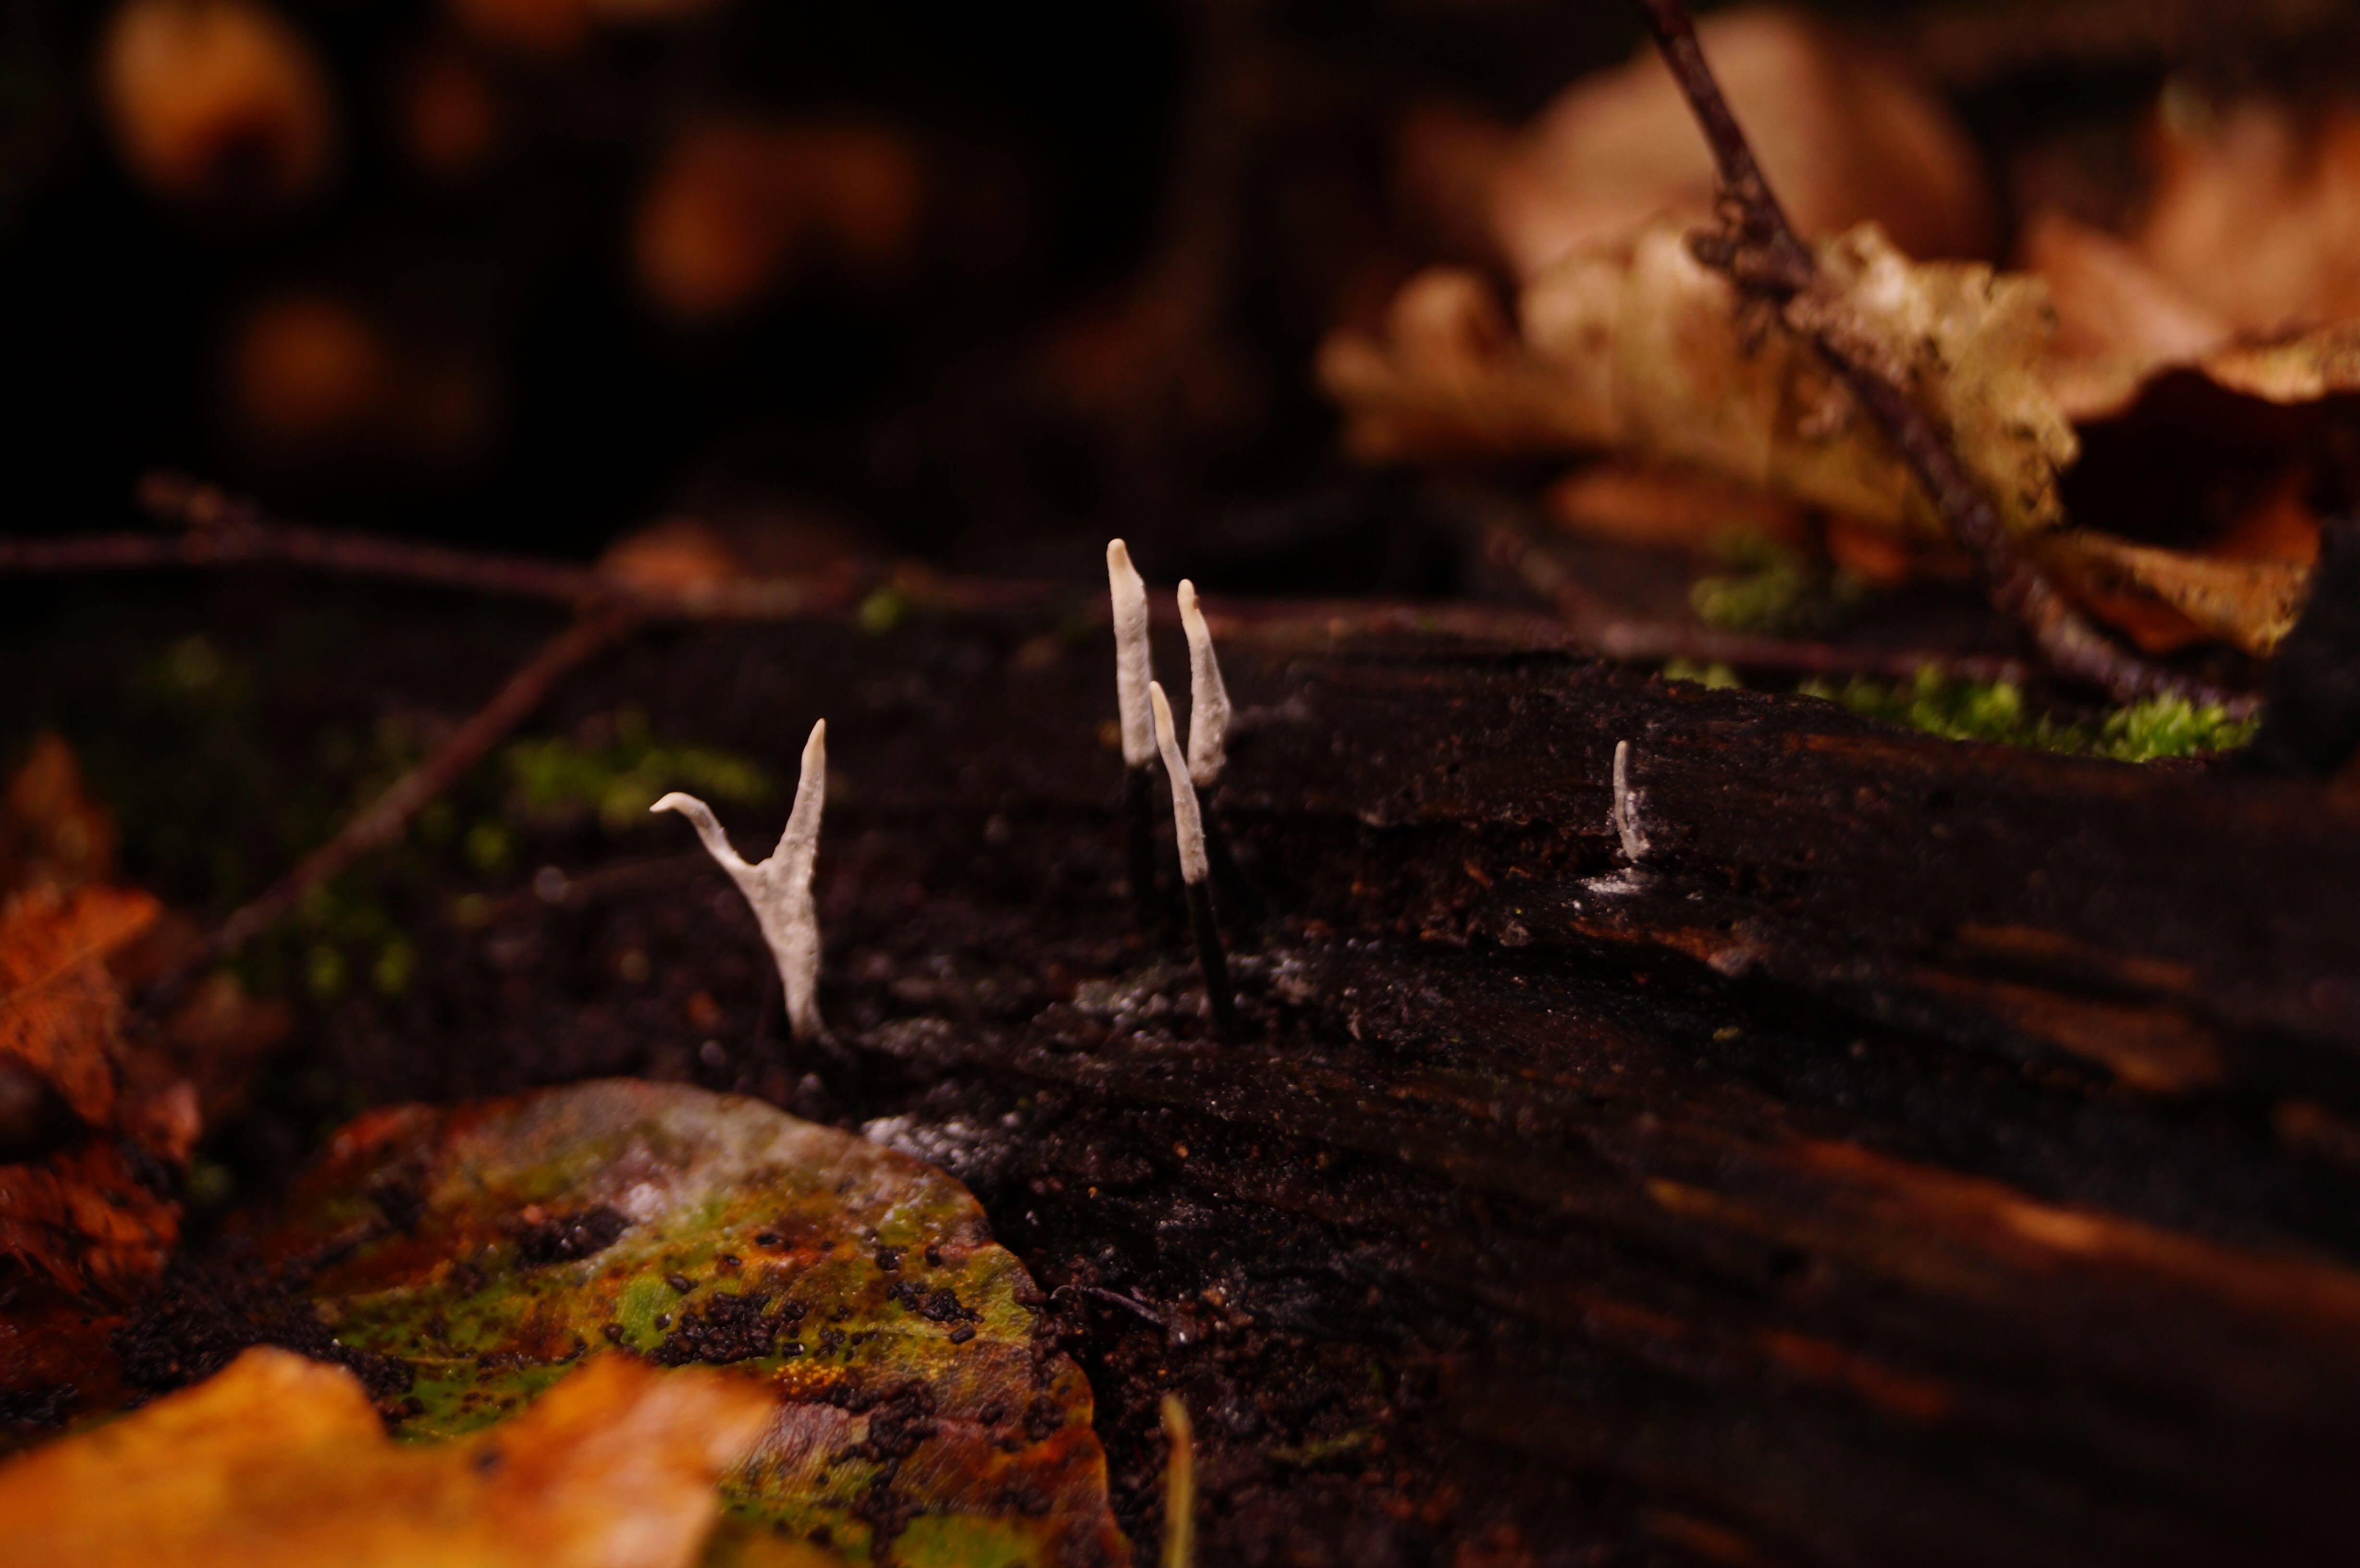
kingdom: Fungi
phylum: Ascomycota
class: Sordariomycetes
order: Xylariales
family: Xylariaceae
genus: Xylaria
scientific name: Xylaria hypoxylon
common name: grenet stødsvamp
